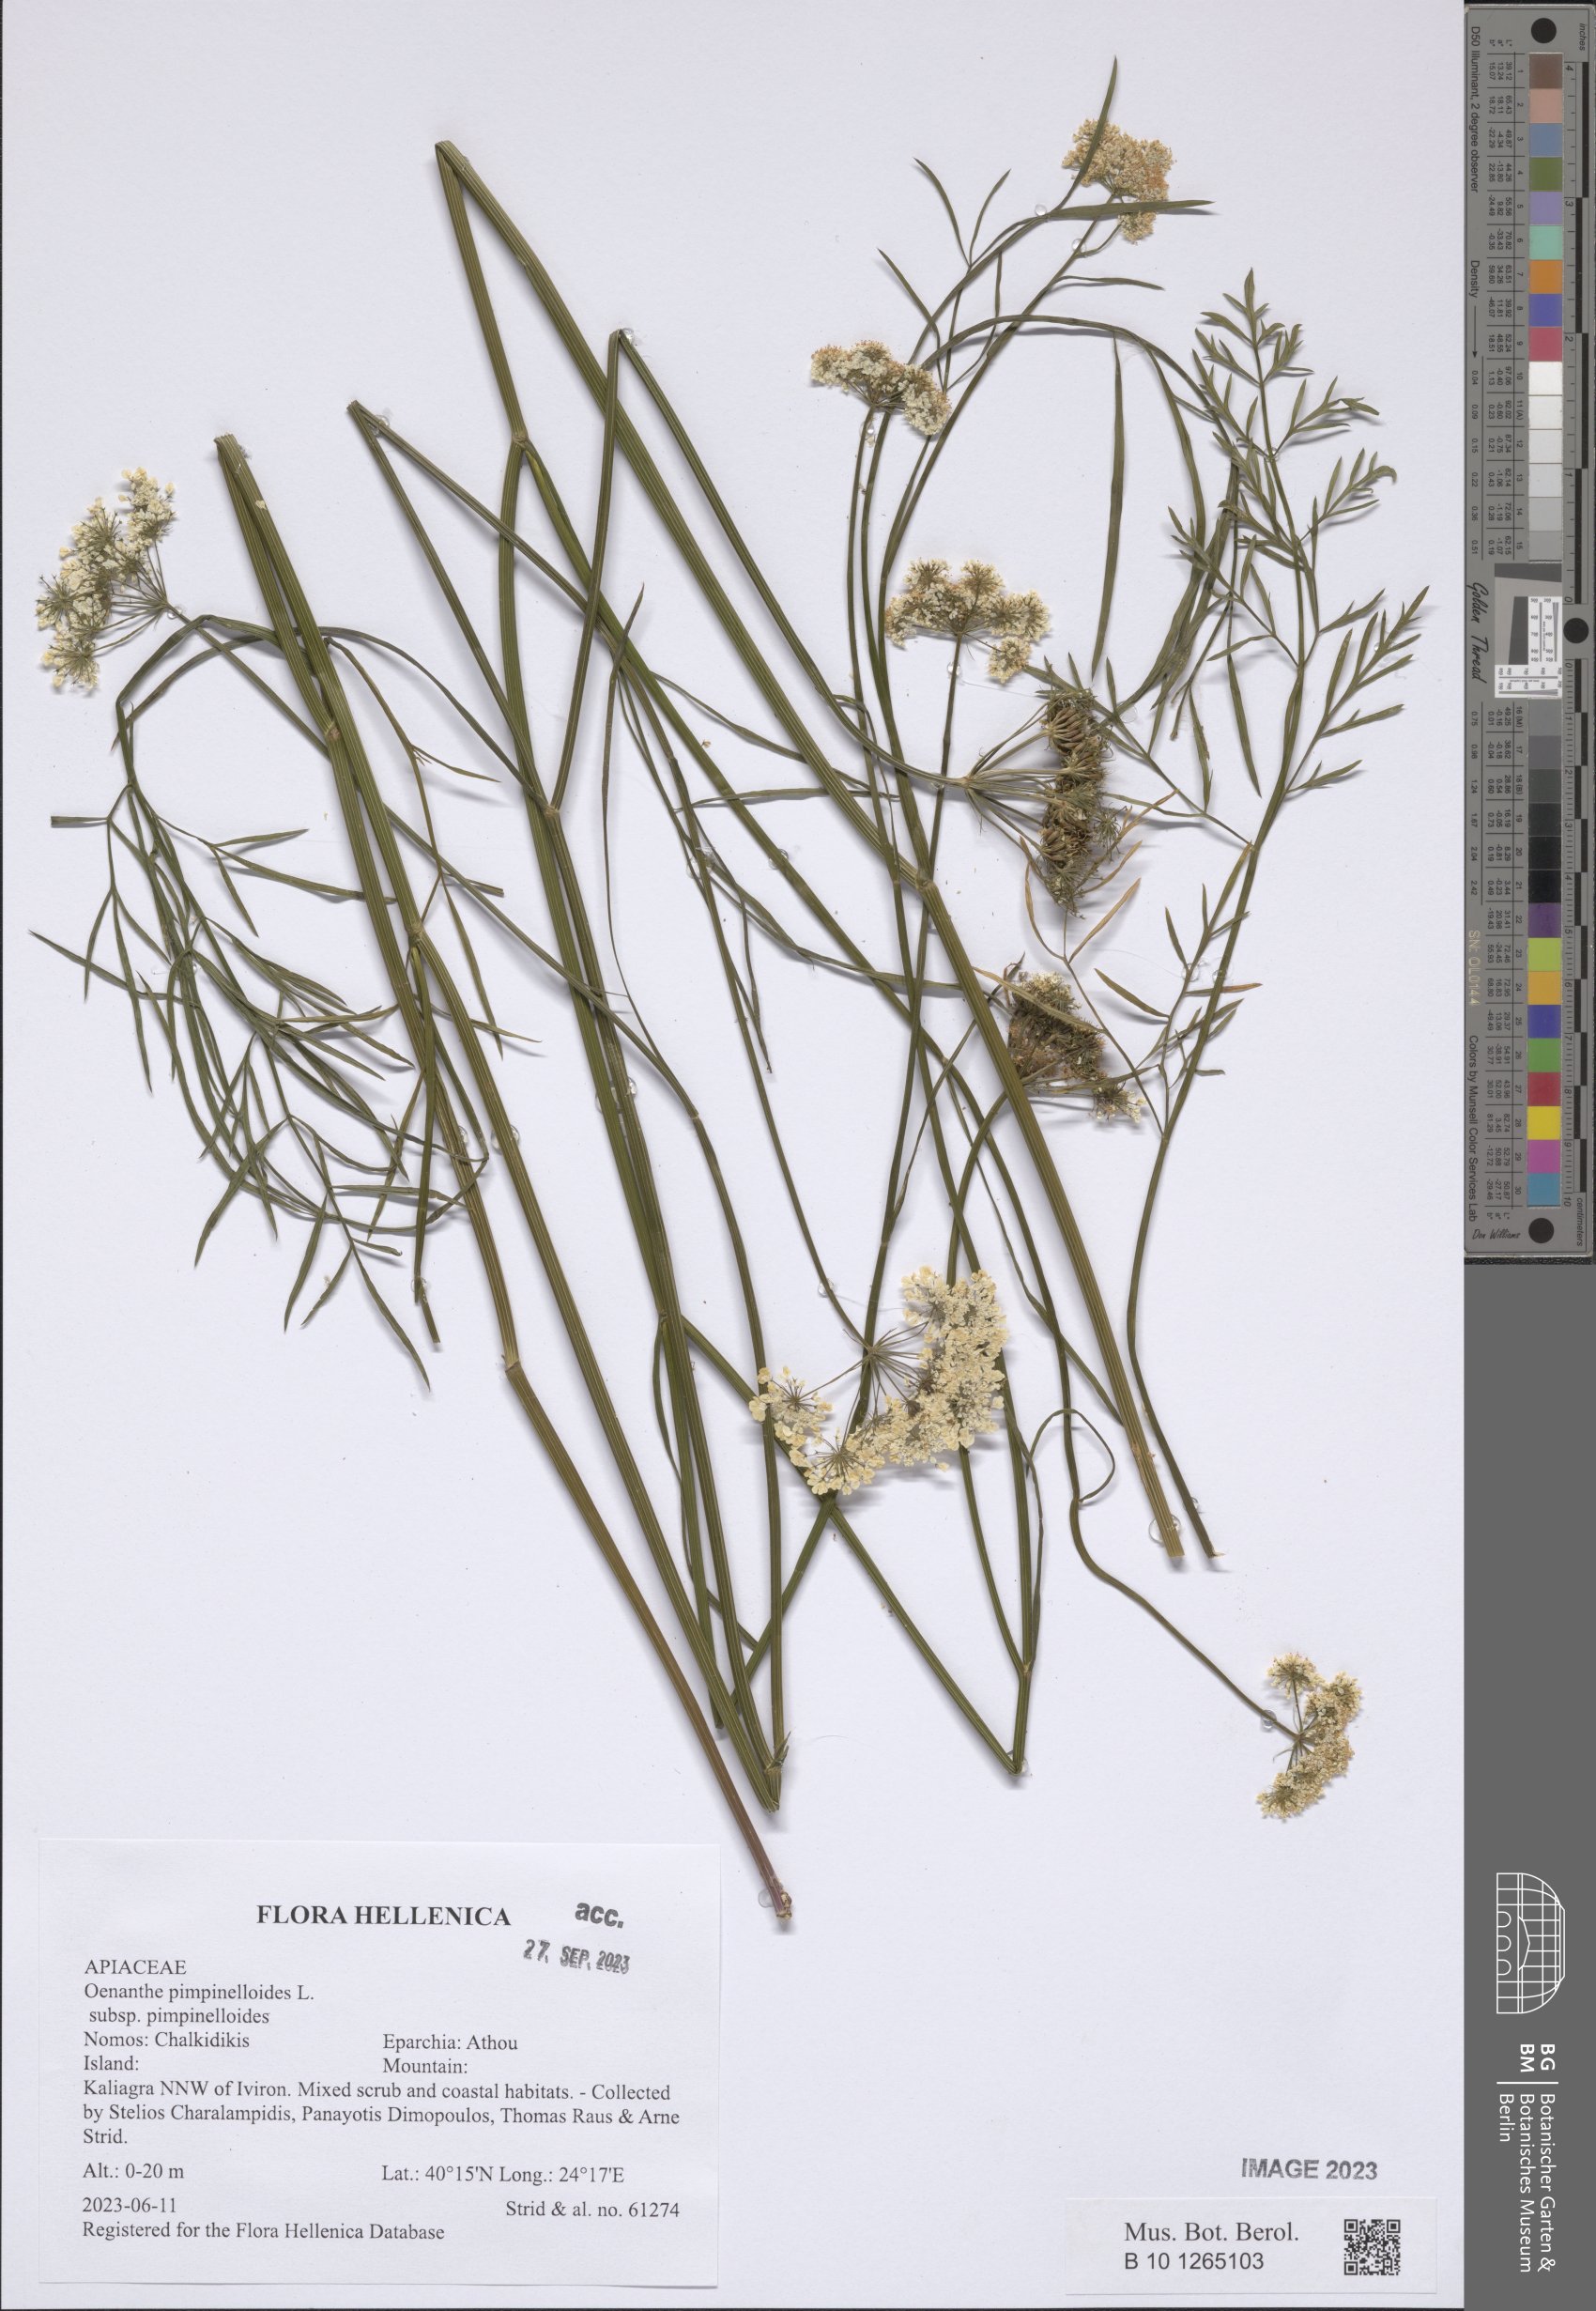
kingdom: Plantae
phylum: Tracheophyta
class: Magnoliopsida
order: Apiales
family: Apiaceae
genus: Oenanthe
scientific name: Oenanthe pimpinelloides
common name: Corky-fruited water-dropwort
